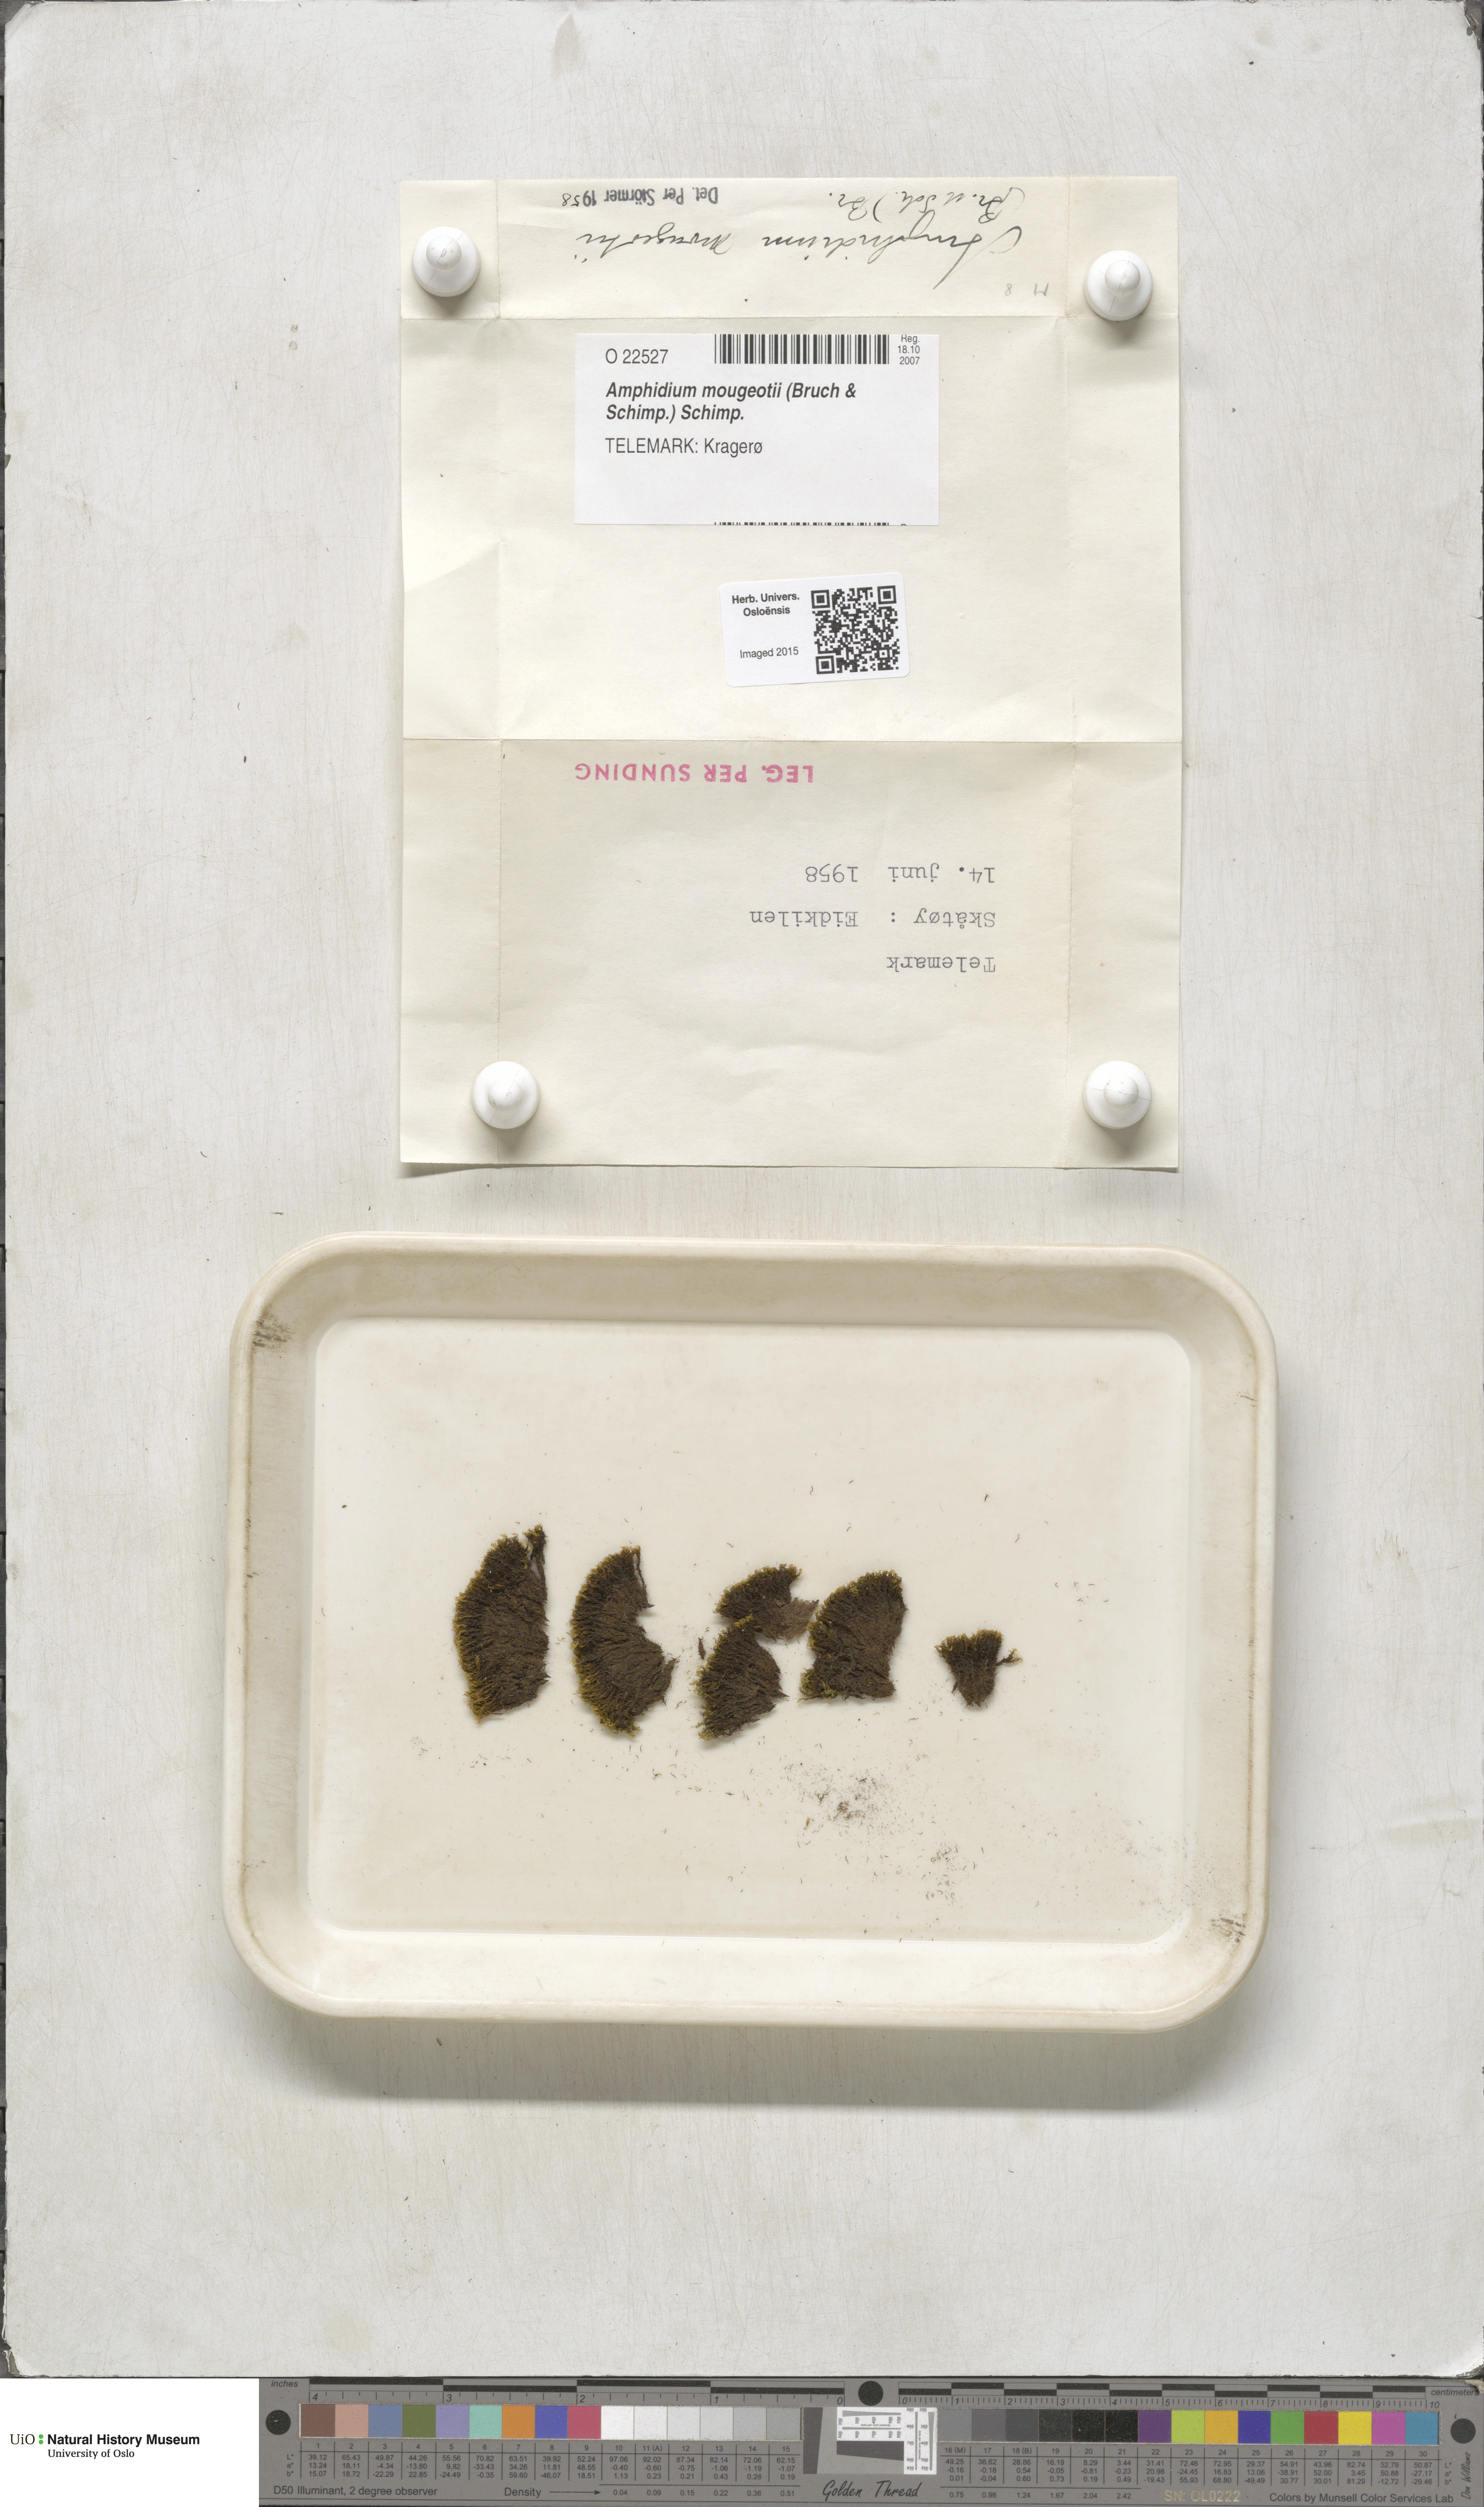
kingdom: Plantae
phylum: Bryophyta
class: Bryopsida
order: Dicranales
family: Amphidiaceae
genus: Amphidium
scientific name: Amphidium mougeotii
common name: Mougeot's yoke moss
